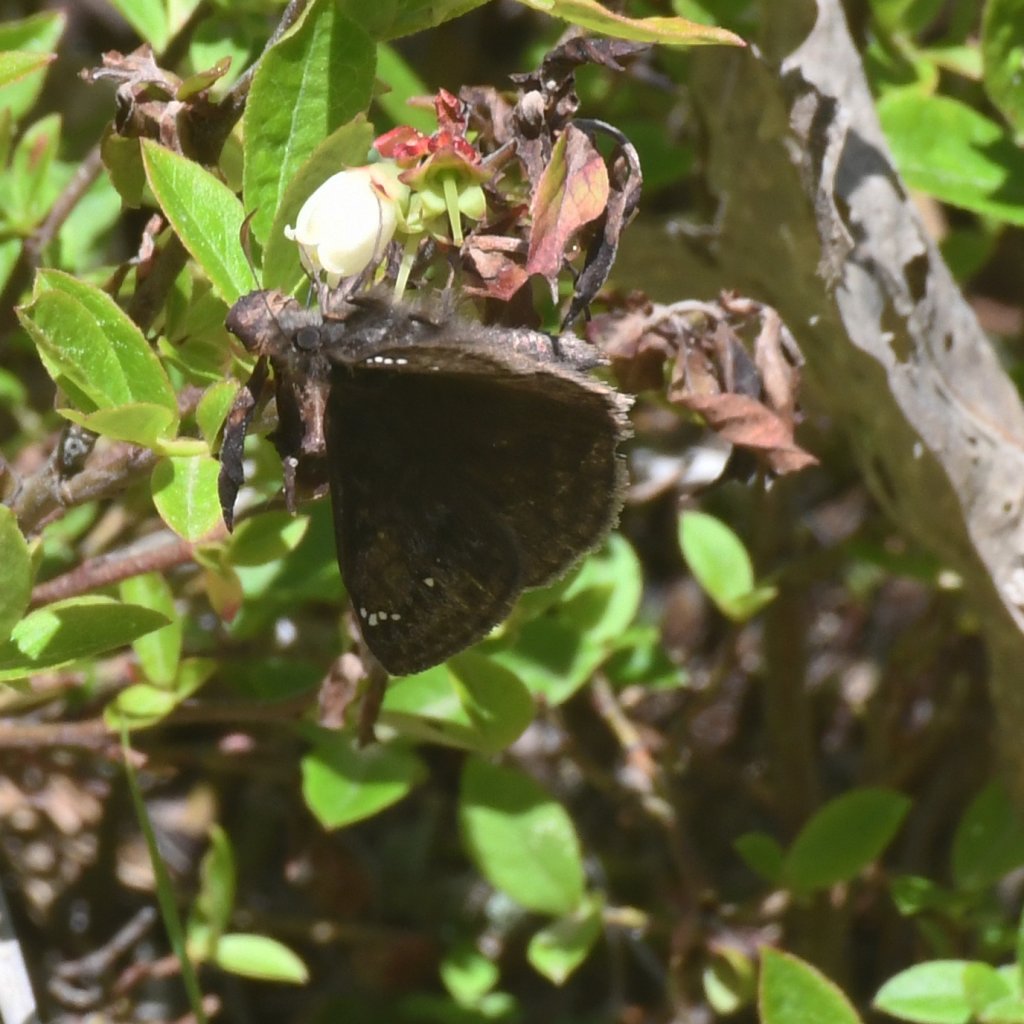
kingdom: Animalia
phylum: Arthropoda
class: Insecta
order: Lepidoptera
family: Hesperiidae
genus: Gesta
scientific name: Gesta
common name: Juvenal's Duskywing
